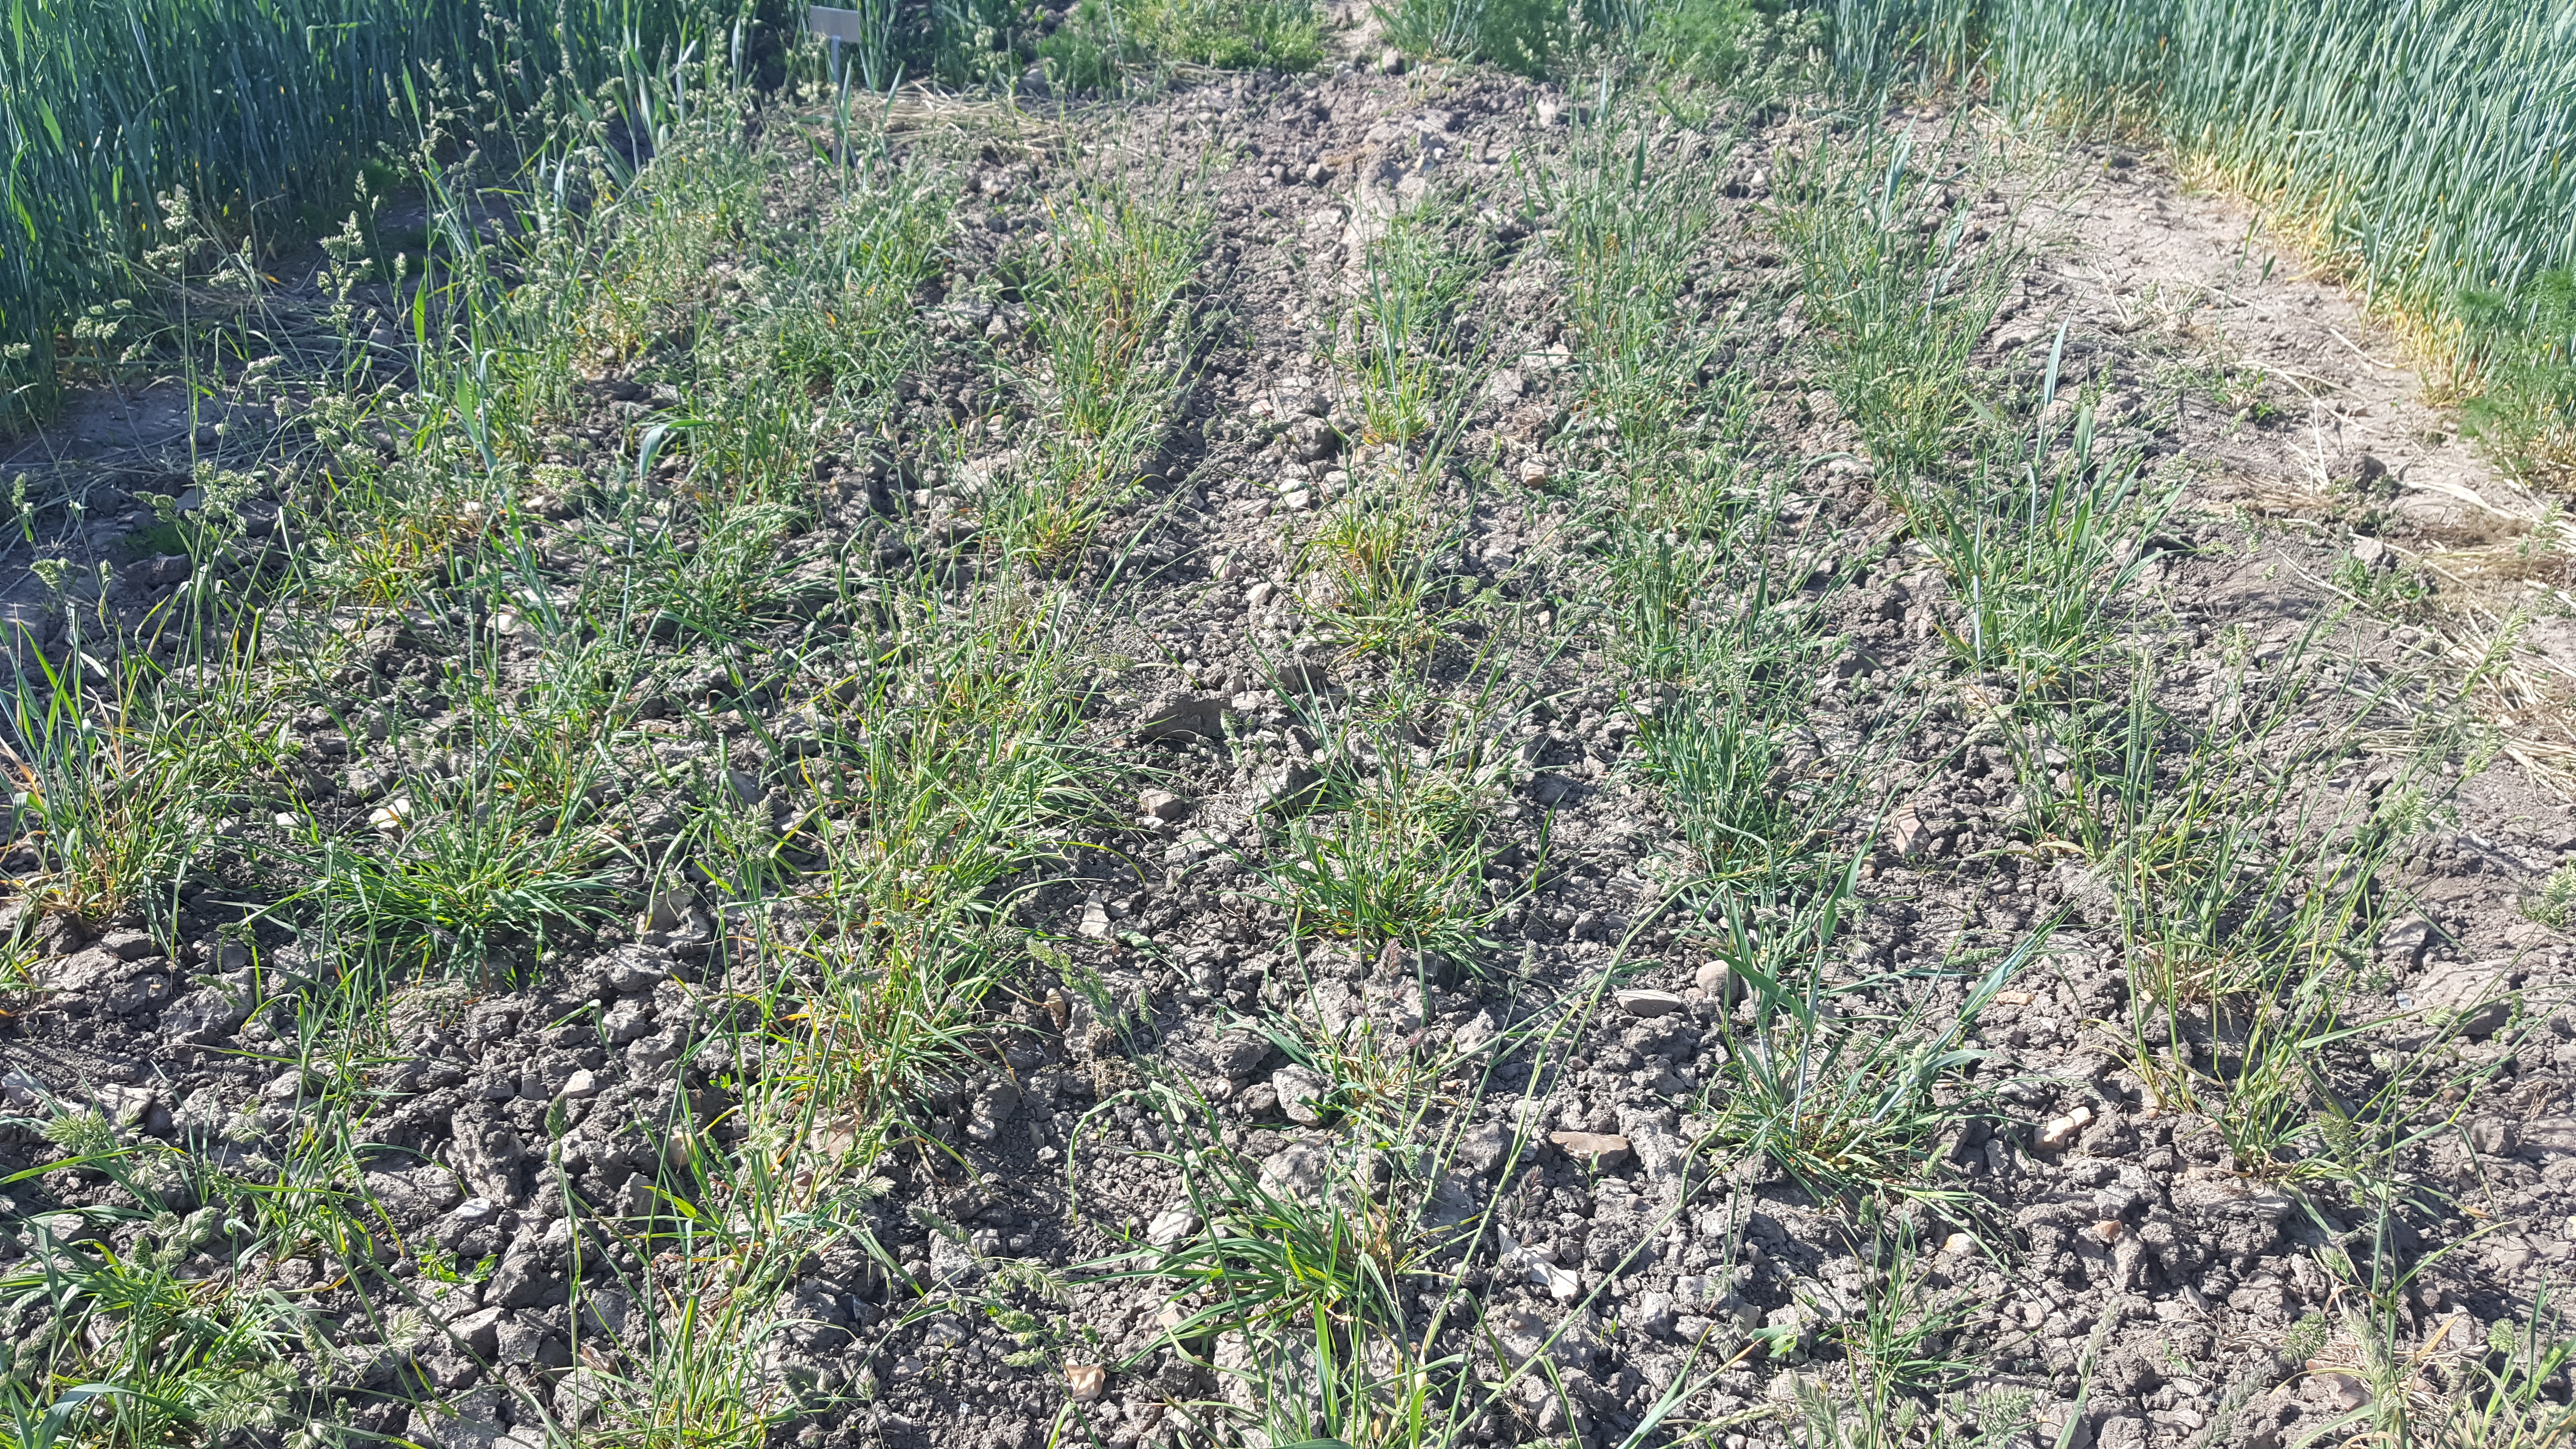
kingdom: Plantae
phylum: Tracheophyta
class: Liliopsida
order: Poales
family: Poaceae
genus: Dactylis
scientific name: Dactylis glomerata
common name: Orchardgrass
